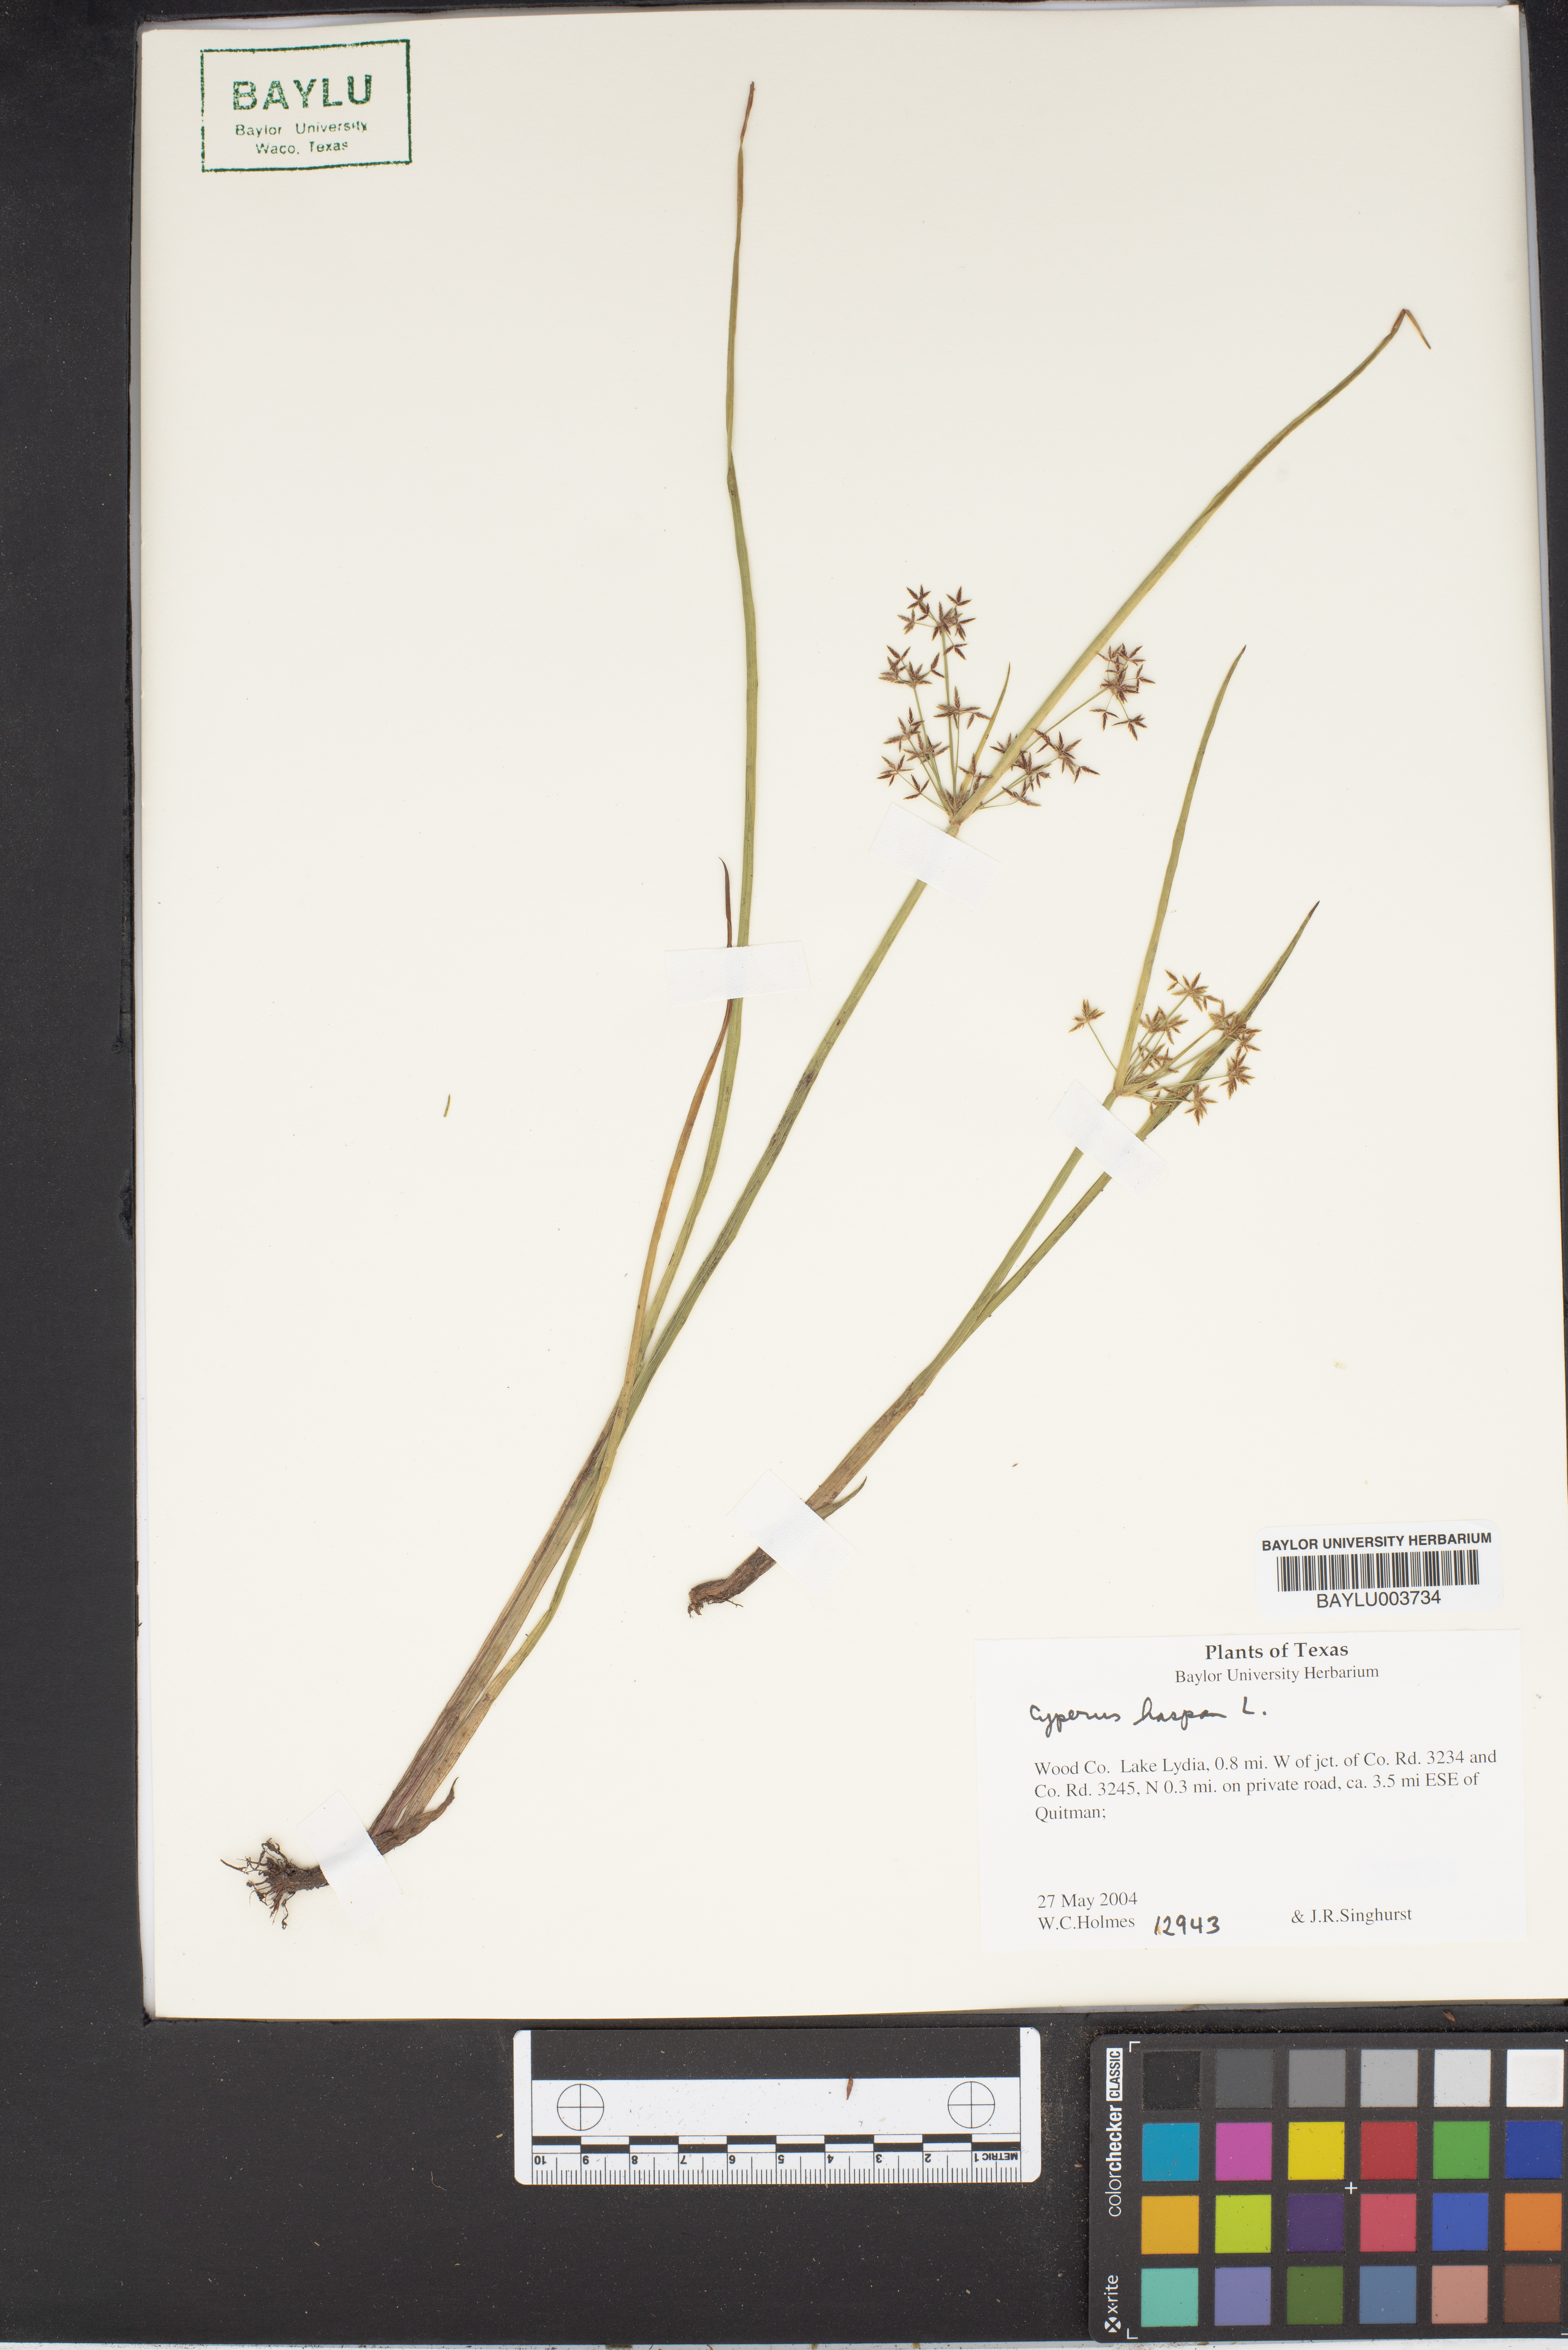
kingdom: Plantae
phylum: Tracheophyta
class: Liliopsida
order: Poales
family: Cyperaceae
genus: Cyperus
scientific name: Cyperus haspan
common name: Haspan flatsedge
